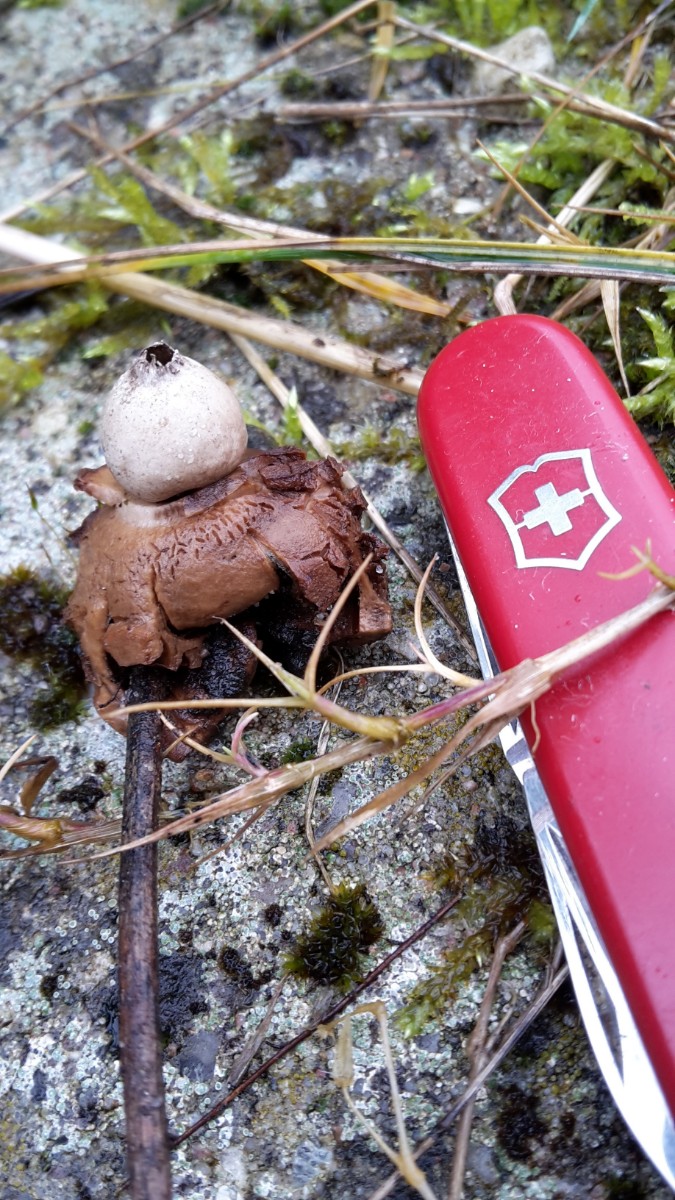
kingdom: Fungi
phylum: Basidiomycota
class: Agaricomycetes
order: Geastrales
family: Geastraceae
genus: Geastrum
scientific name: Geastrum fimbriatum
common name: frynset stjernebold
